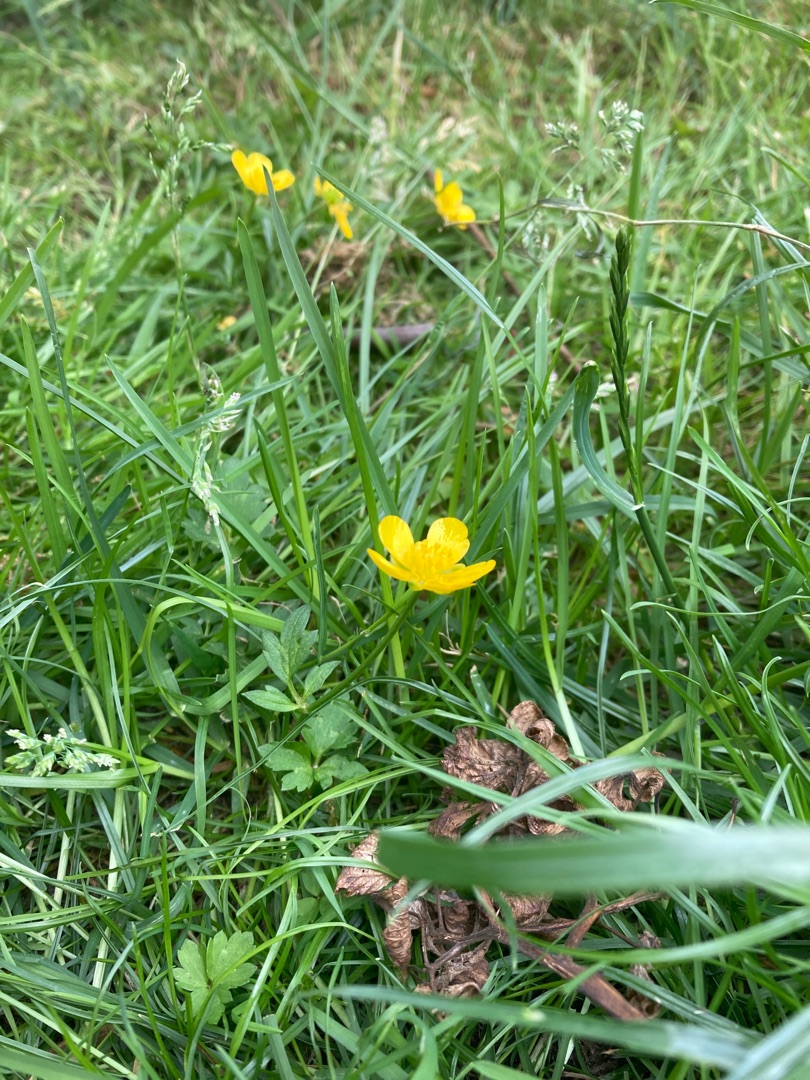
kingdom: Plantae
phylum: Tracheophyta
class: Magnoliopsida
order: Ranunculales
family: Ranunculaceae
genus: Ranunculus
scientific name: Ranunculus repens
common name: Lav ranunkel
